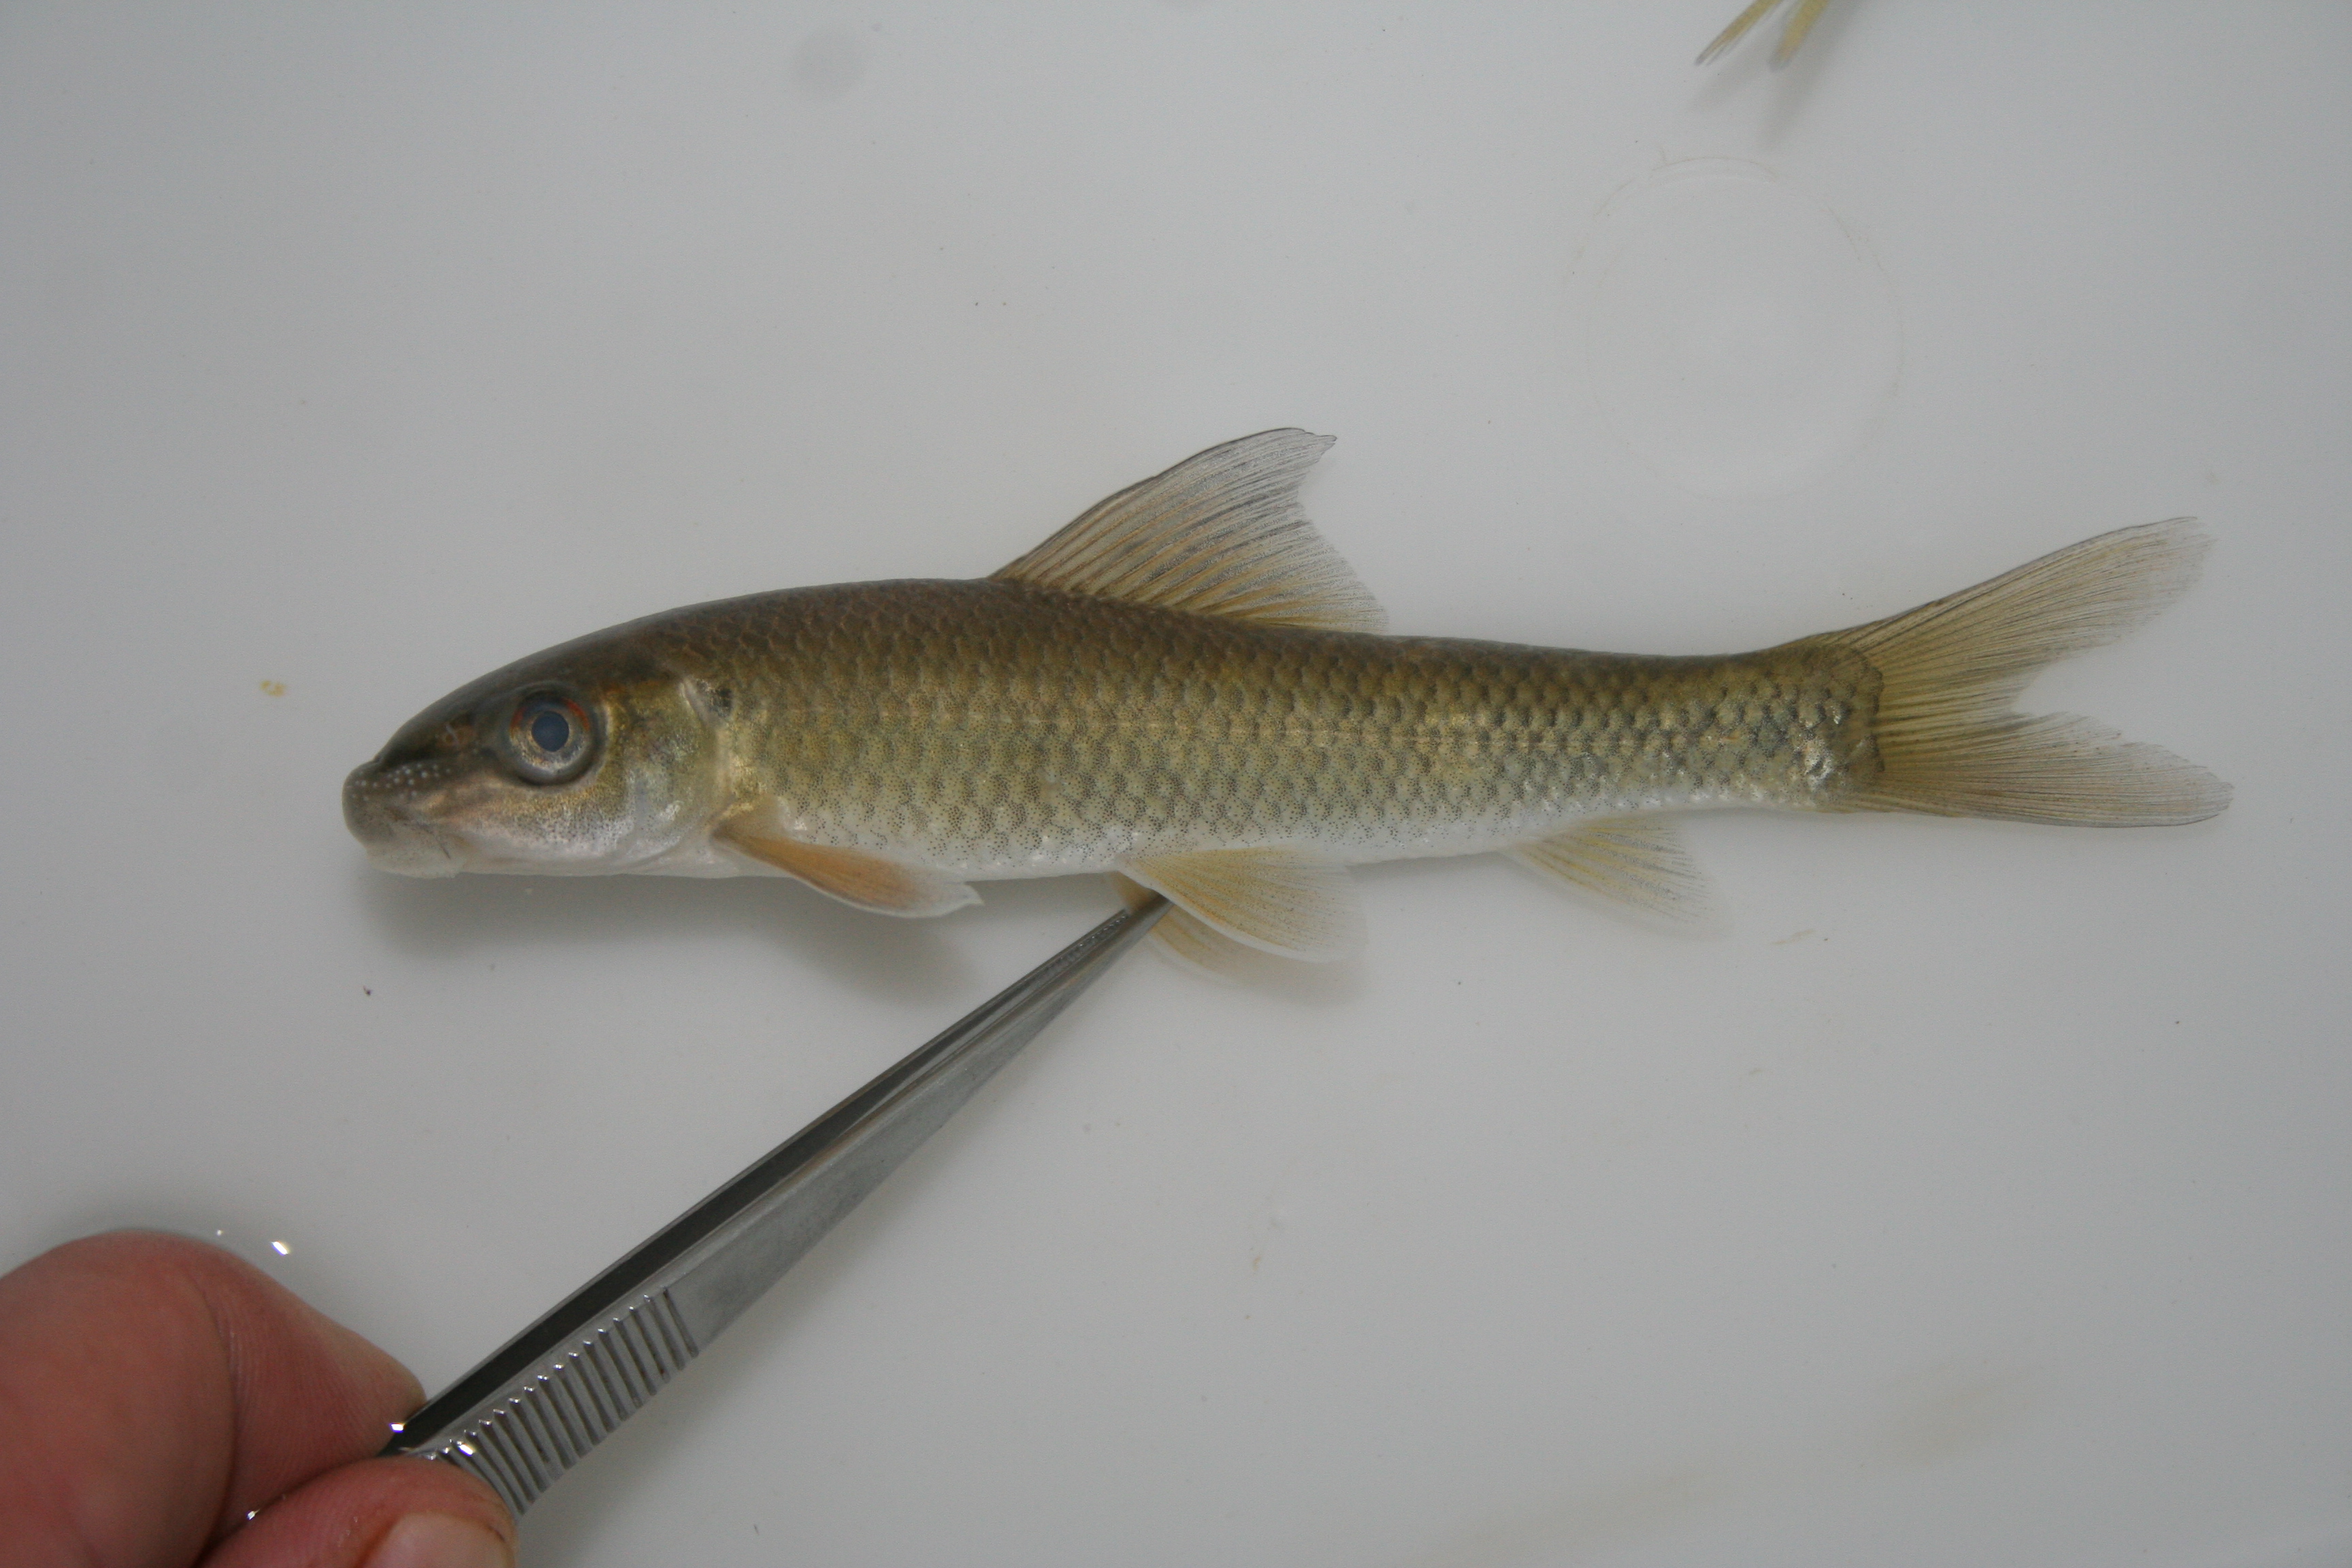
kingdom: Animalia
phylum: Chordata
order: Cypriniformes
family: Cyprinidae
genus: Labeo
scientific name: Labeo
